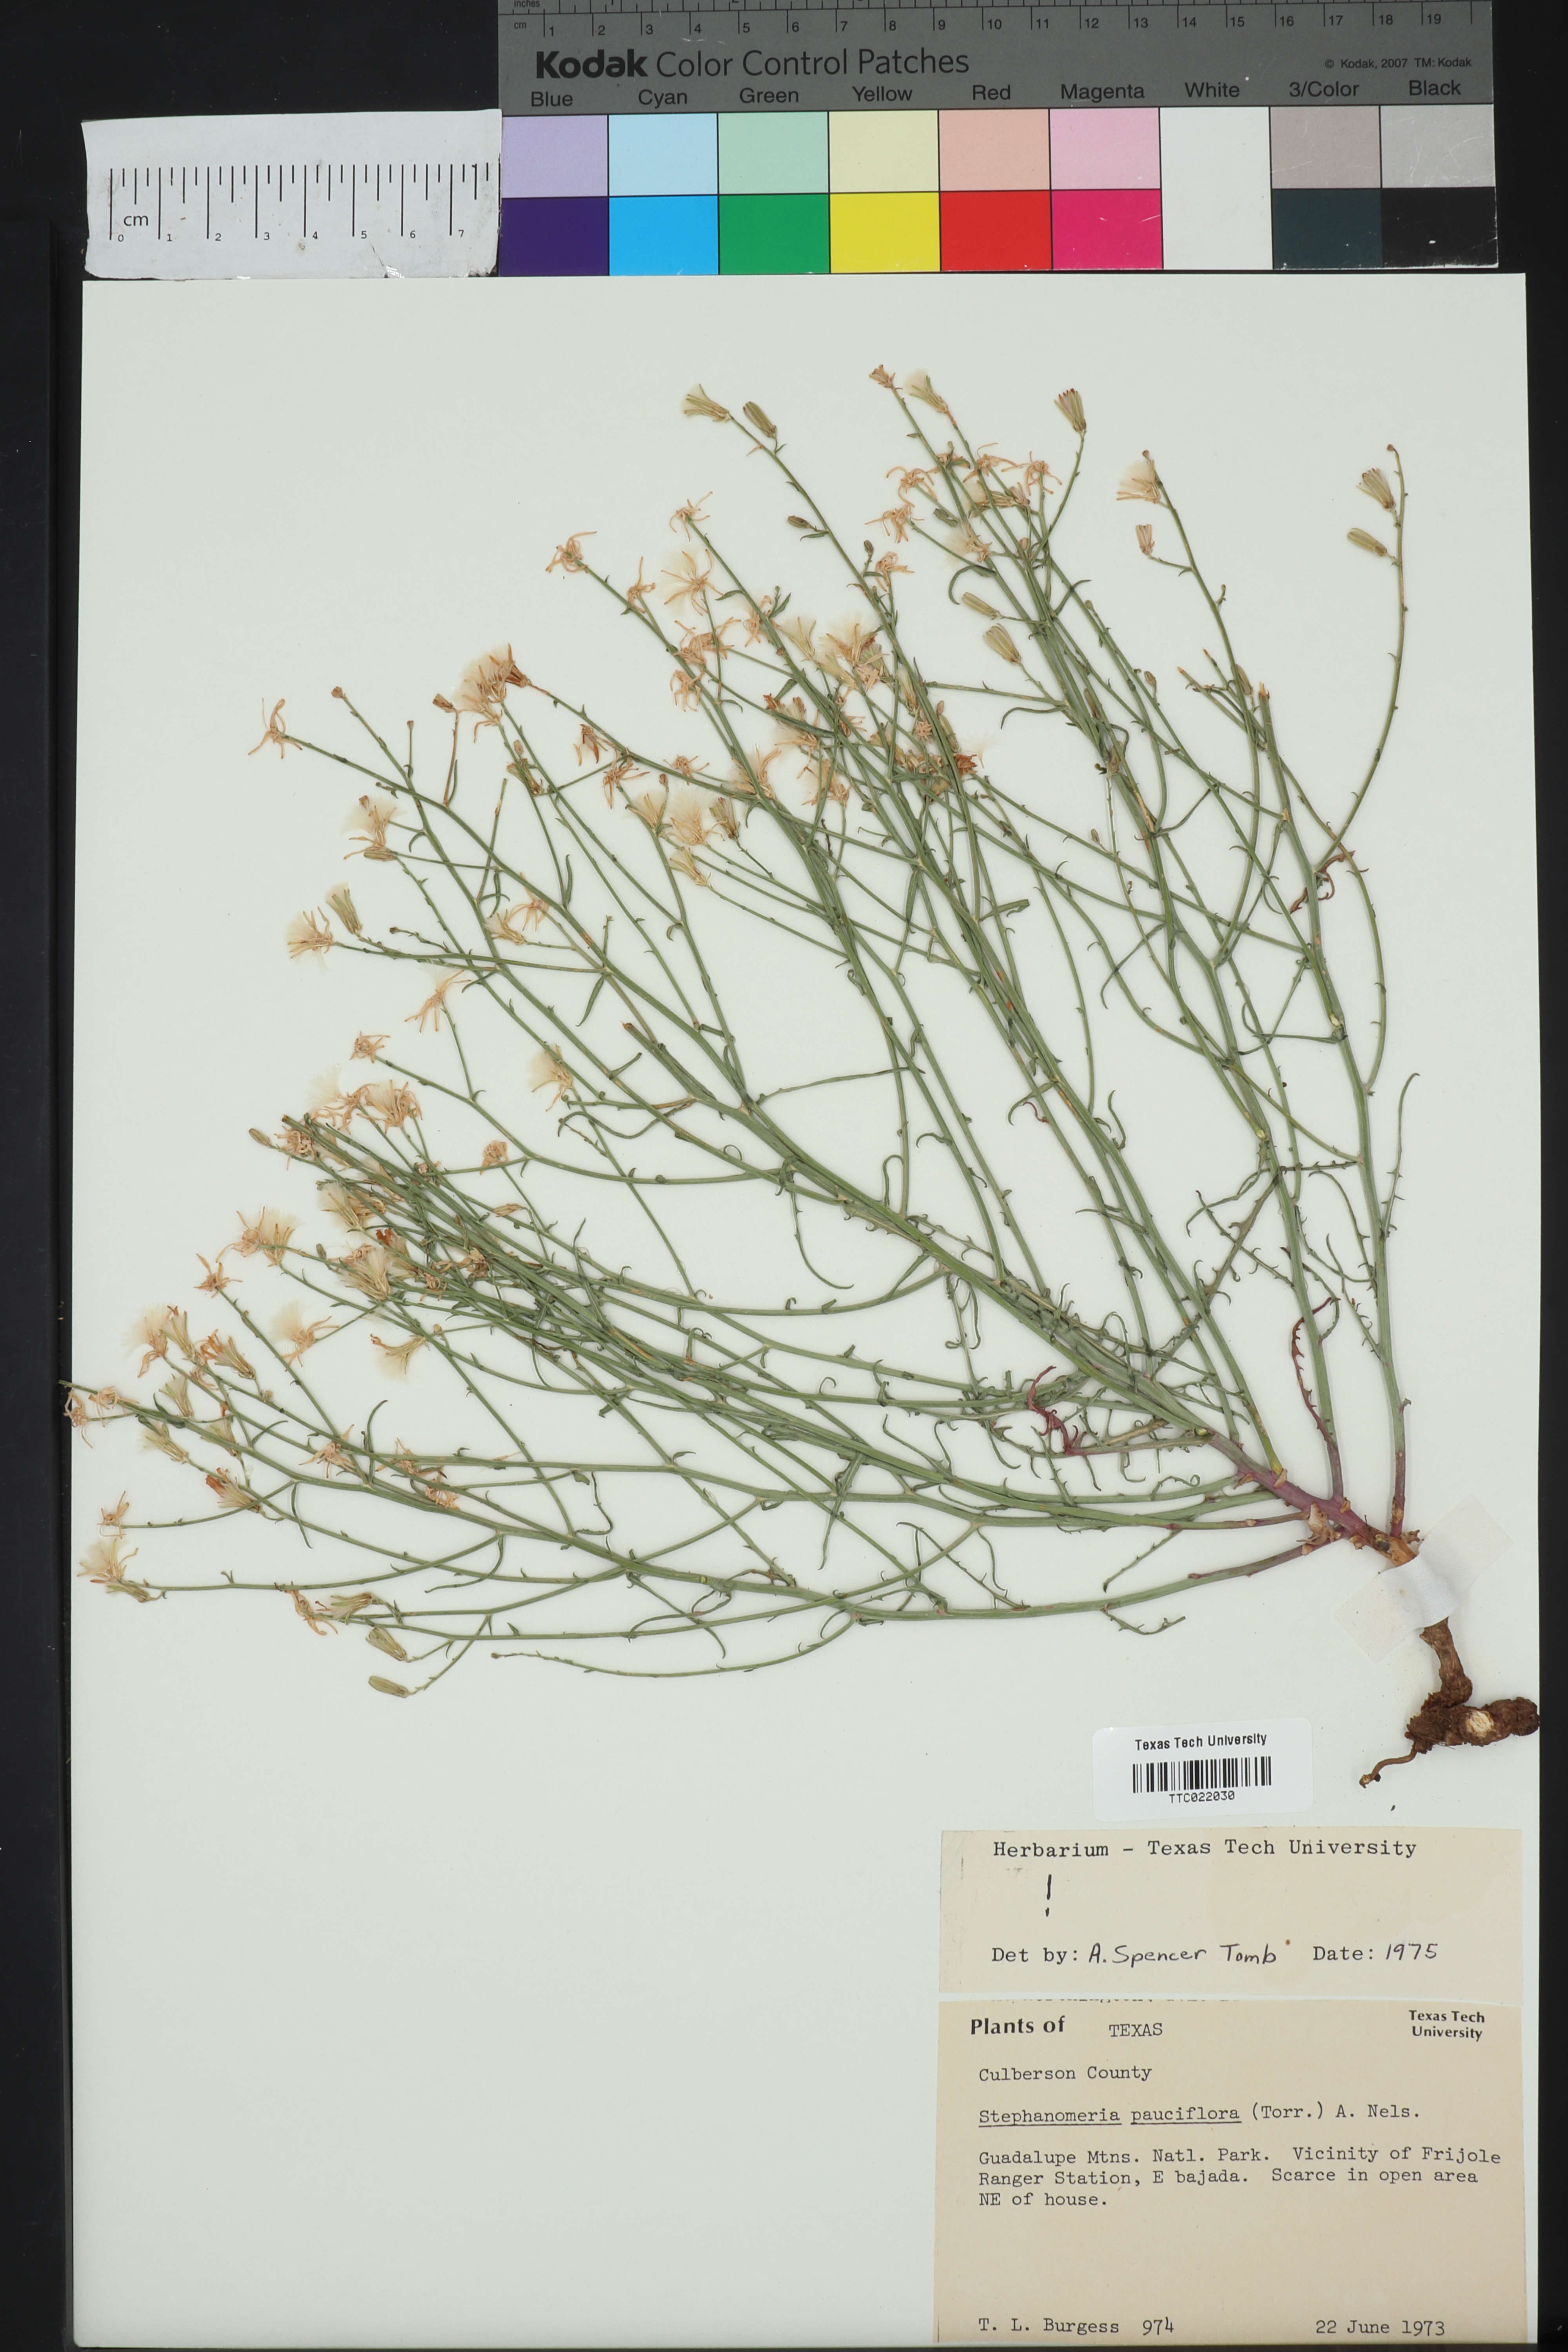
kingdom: Plantae
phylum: Tracheophyta
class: Magnoliopsida
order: Asterales
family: Asteraceae
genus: Stephanomeria
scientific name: Stephanomeria pauciflora
